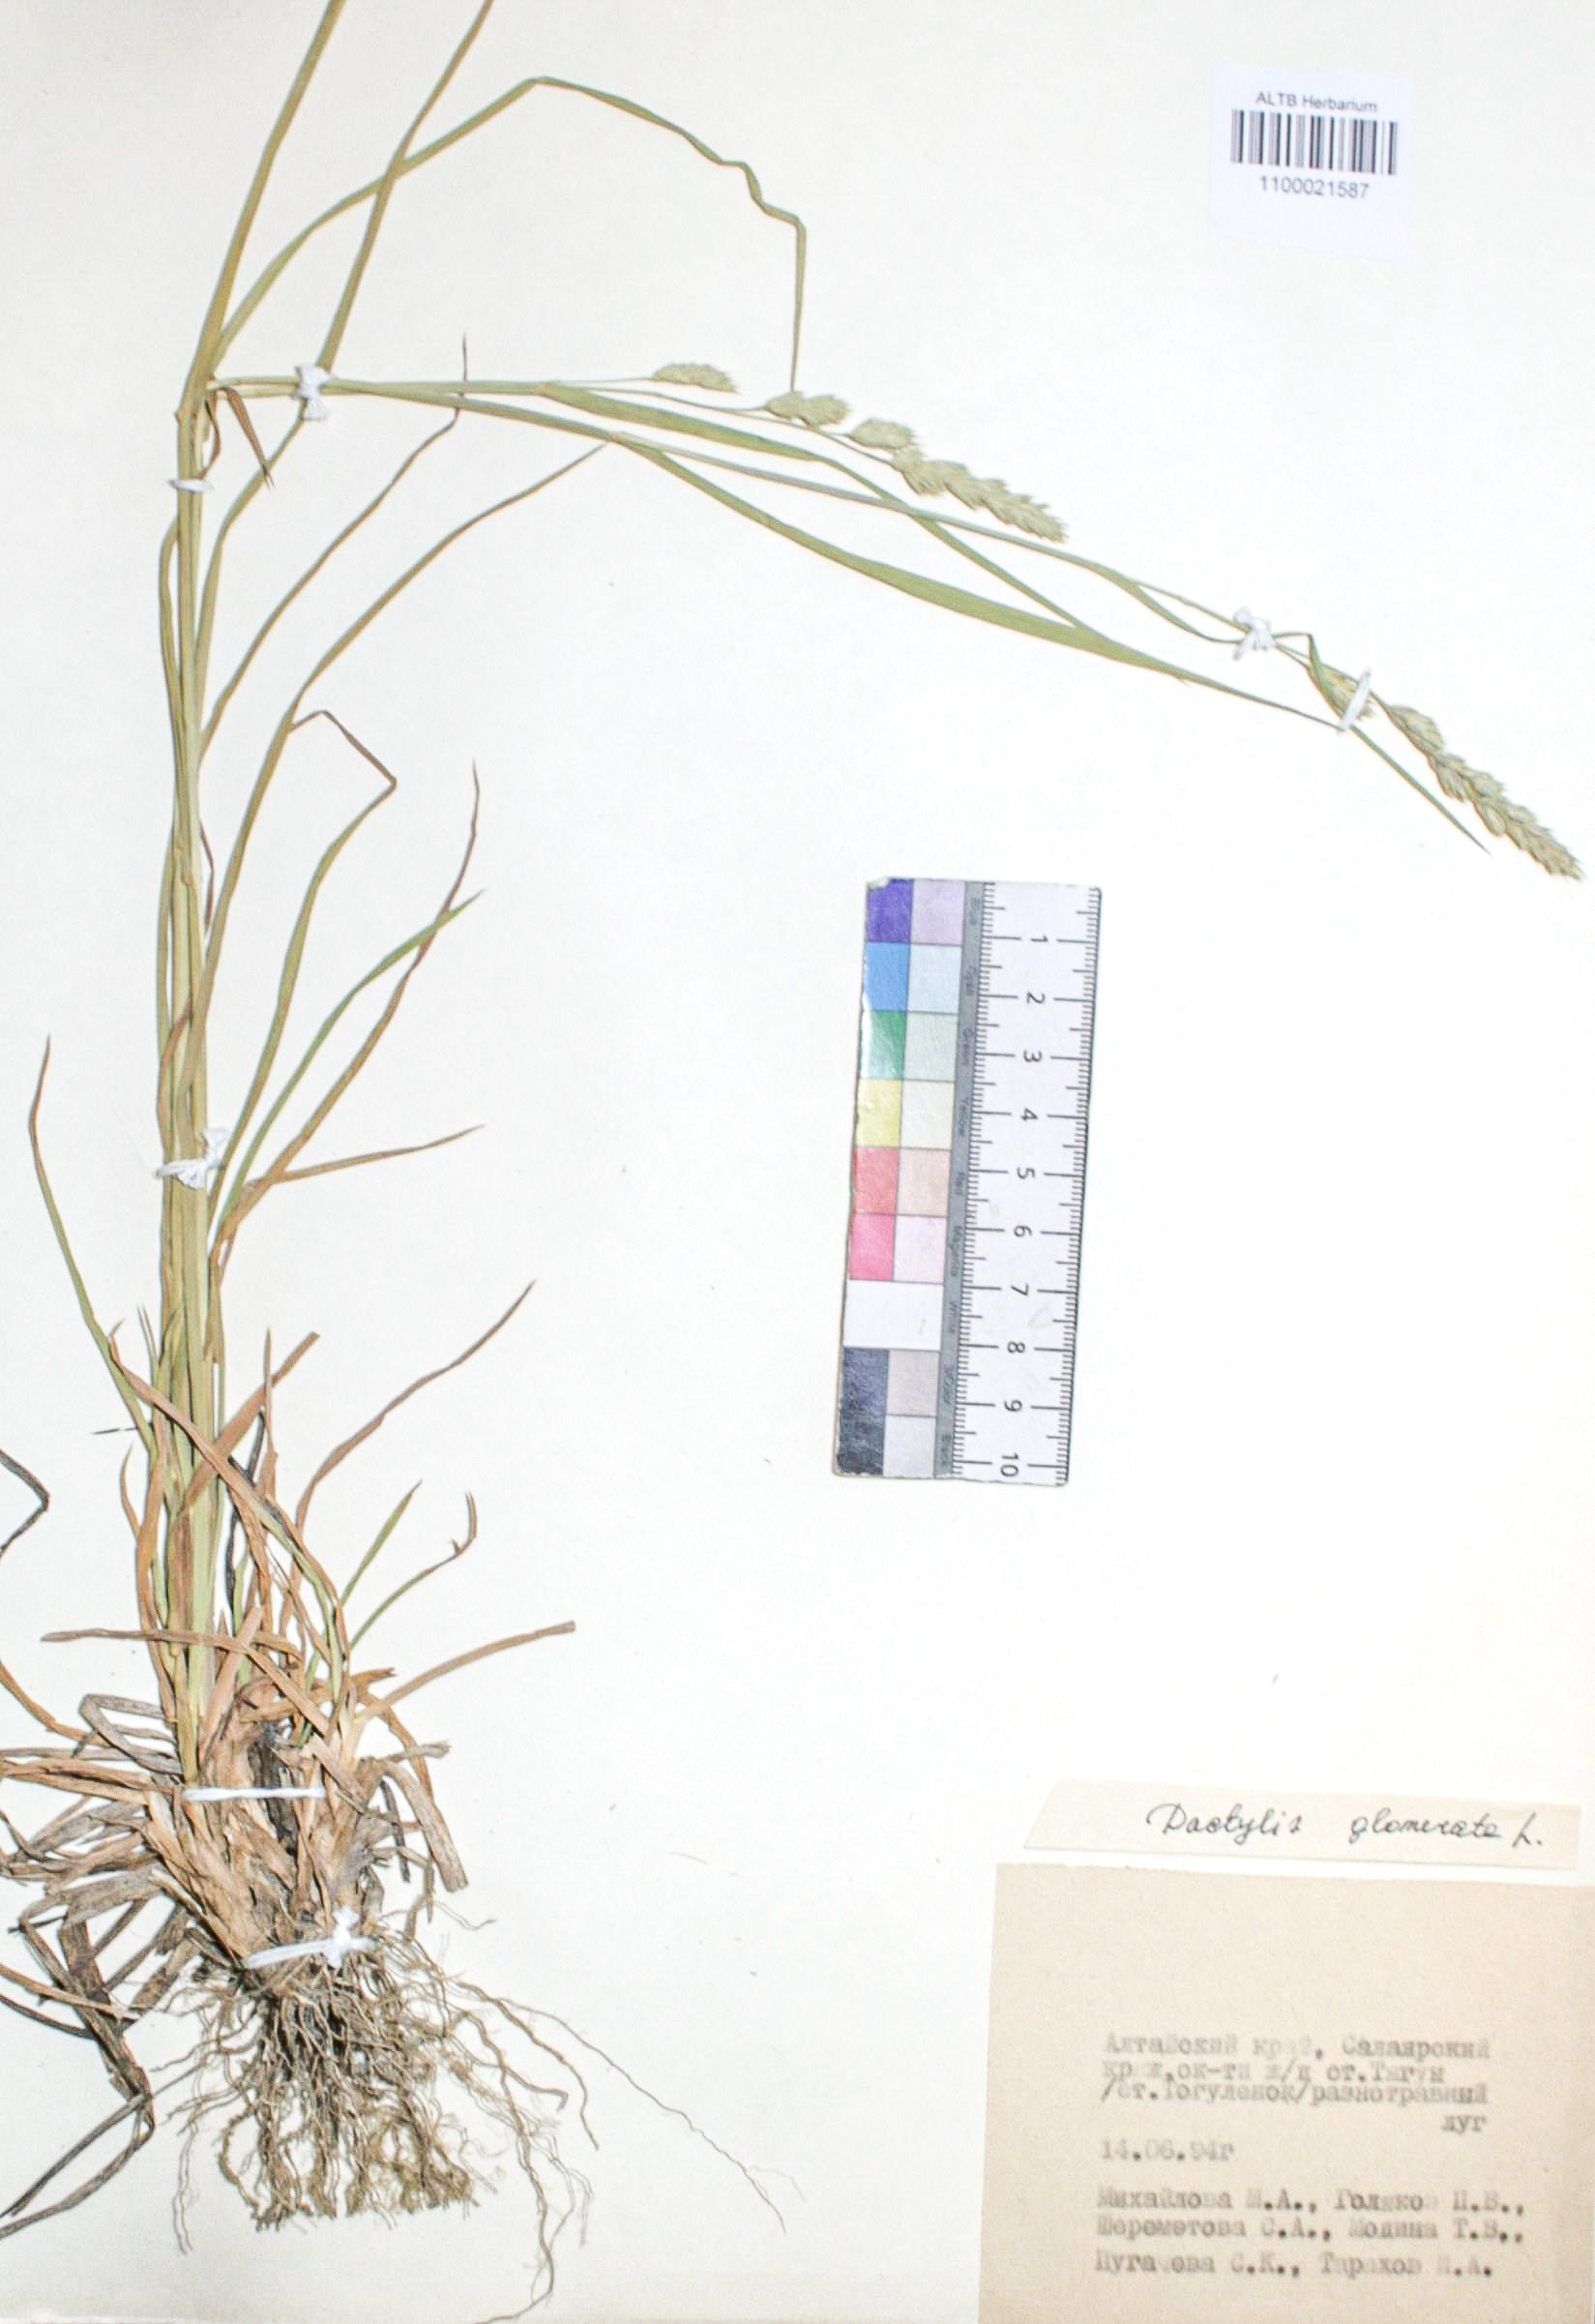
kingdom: Plantae
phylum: Tracheophyta
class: Liliopsida
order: Poales
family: Poaceae
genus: Dactylis
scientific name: Dactylis glomerata
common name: Orchardgrass
